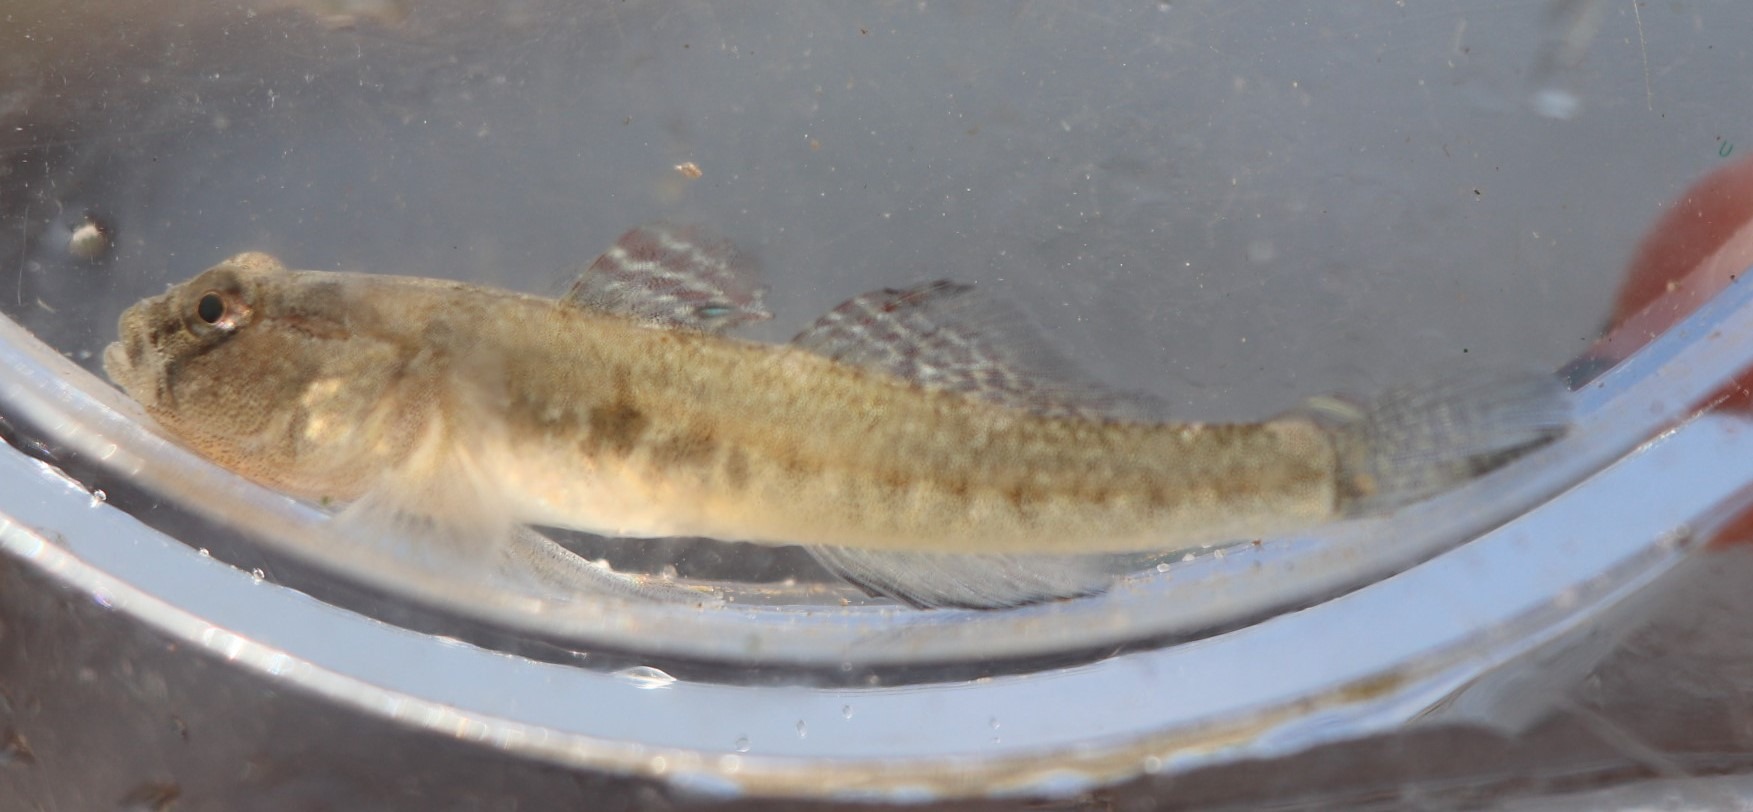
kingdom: Animalia
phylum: Chordata
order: Perciformes
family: Gobiidae
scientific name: Gobiidae
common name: Kutlingefamilien
